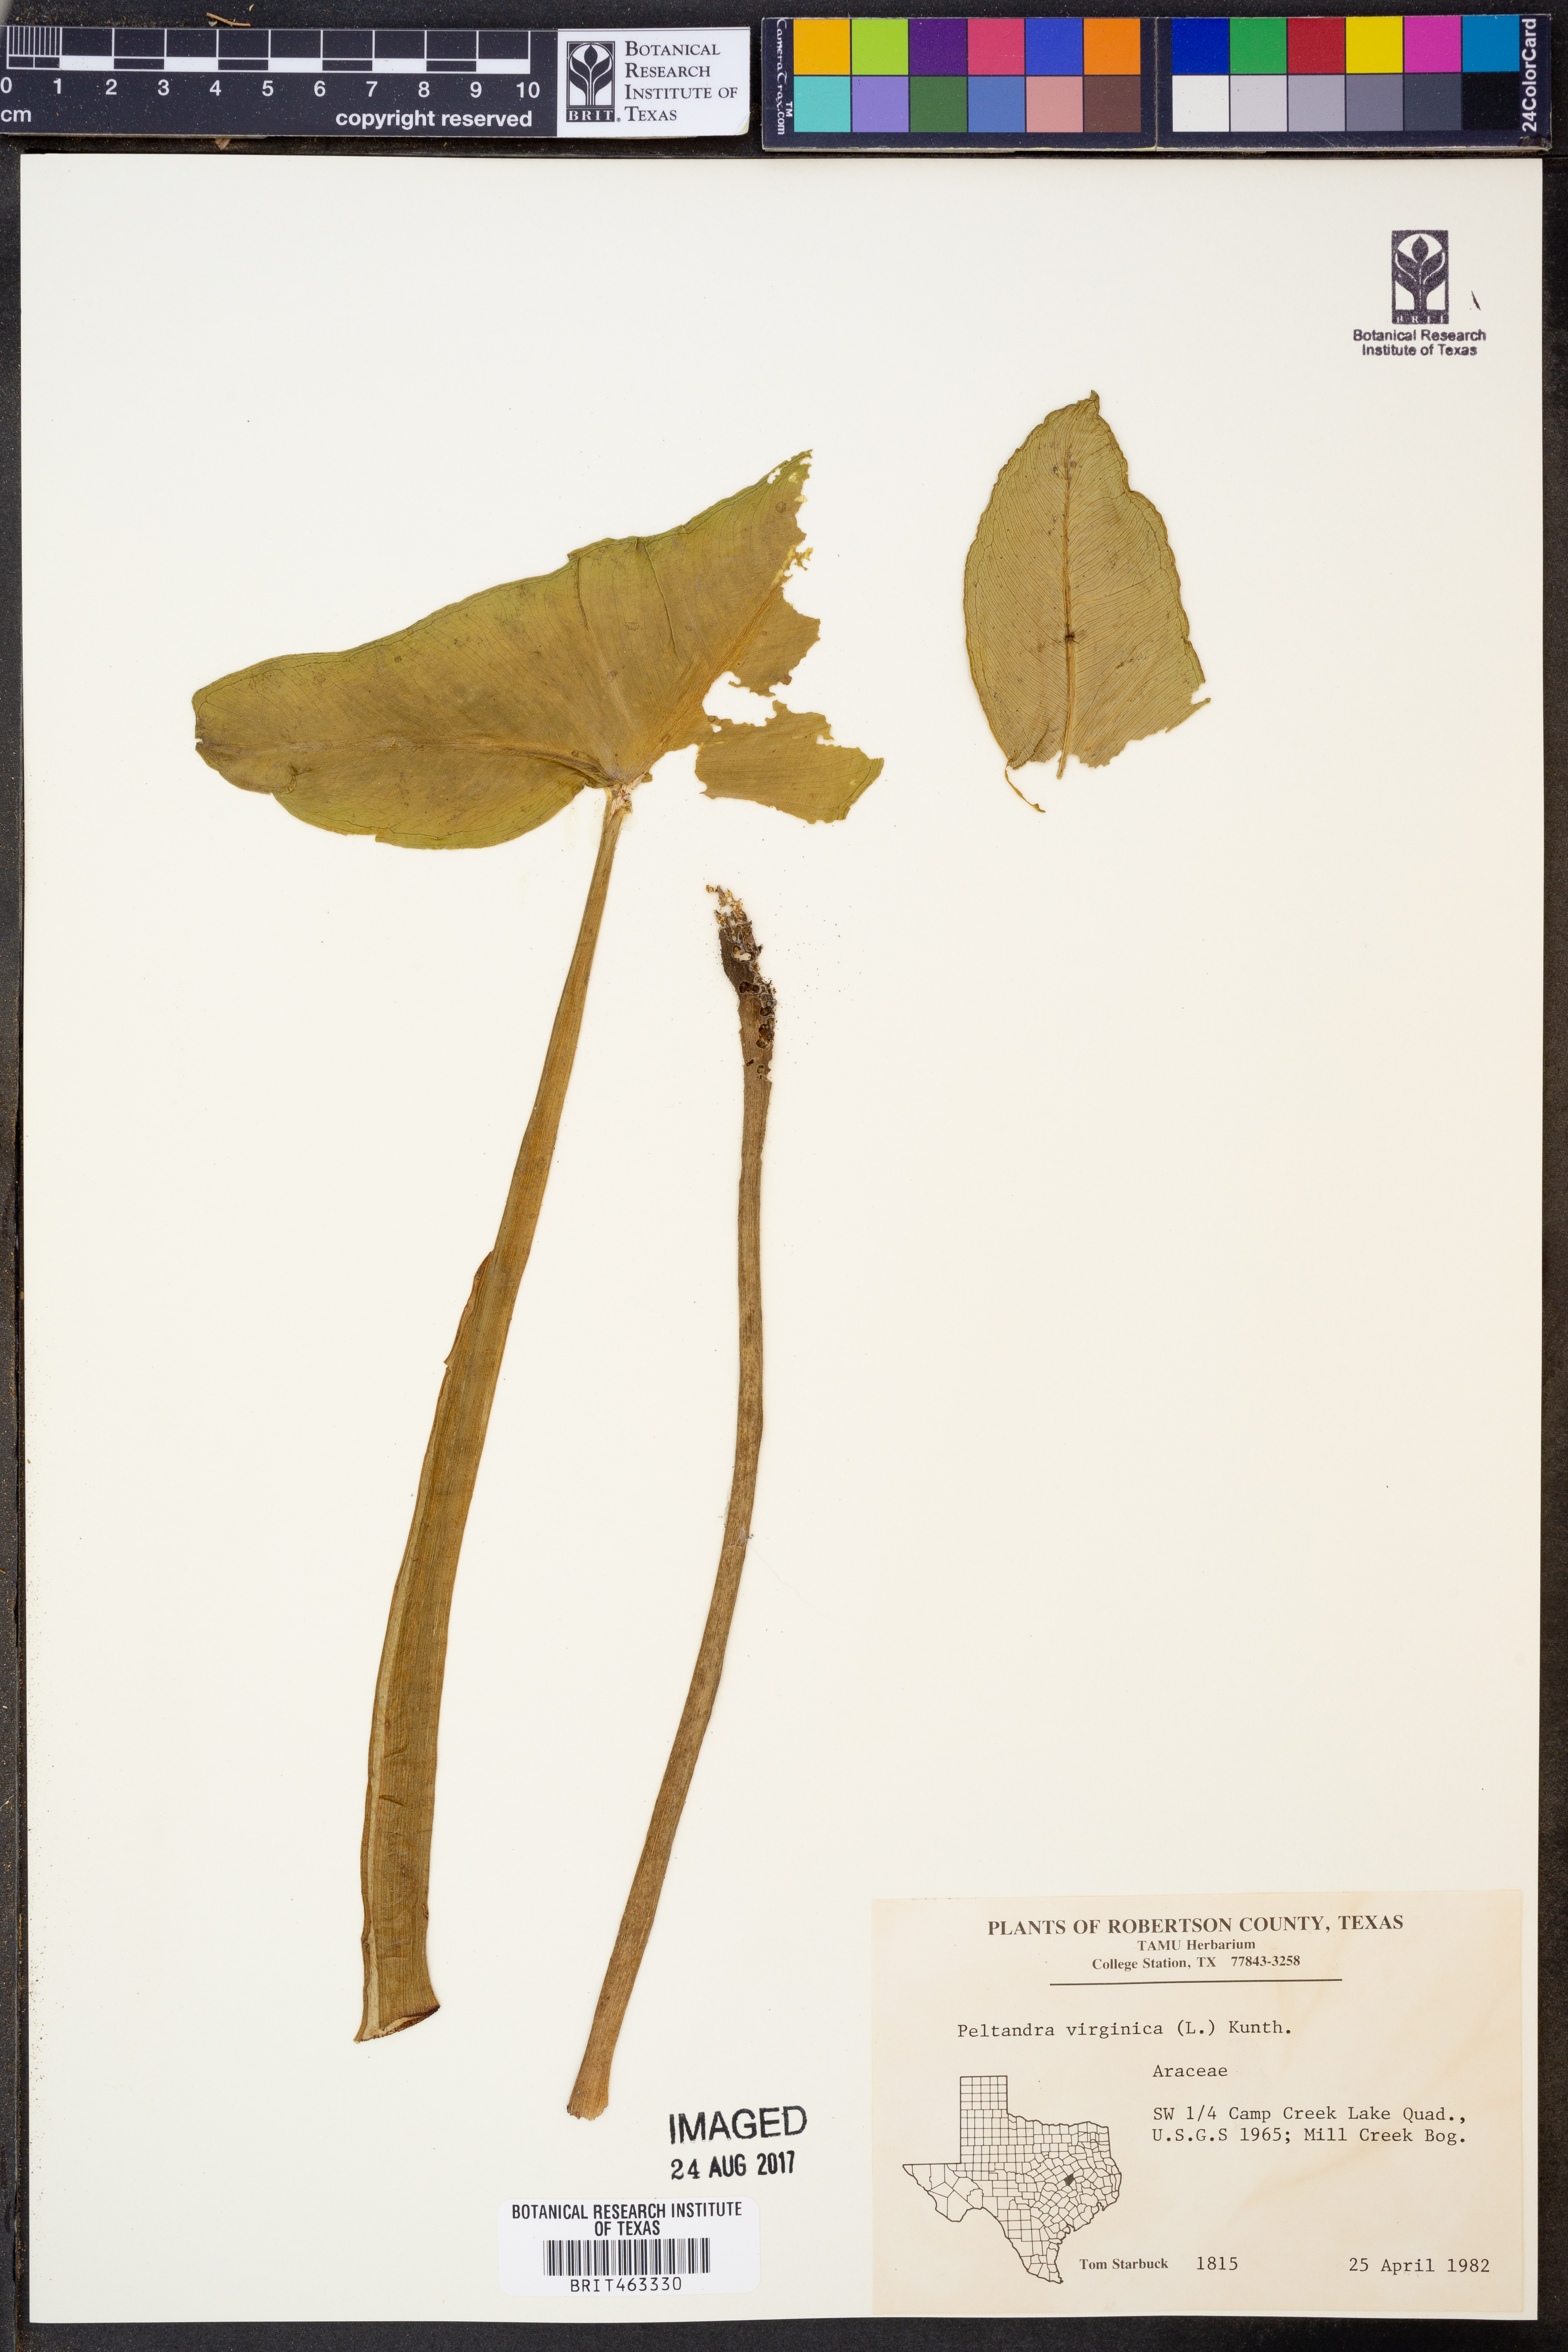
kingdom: Plantae
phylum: Tracheophyta
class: Liliopsida
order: Alismatales
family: Araceae
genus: Peltandra
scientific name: Peltandra virginica
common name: Arrow arum
